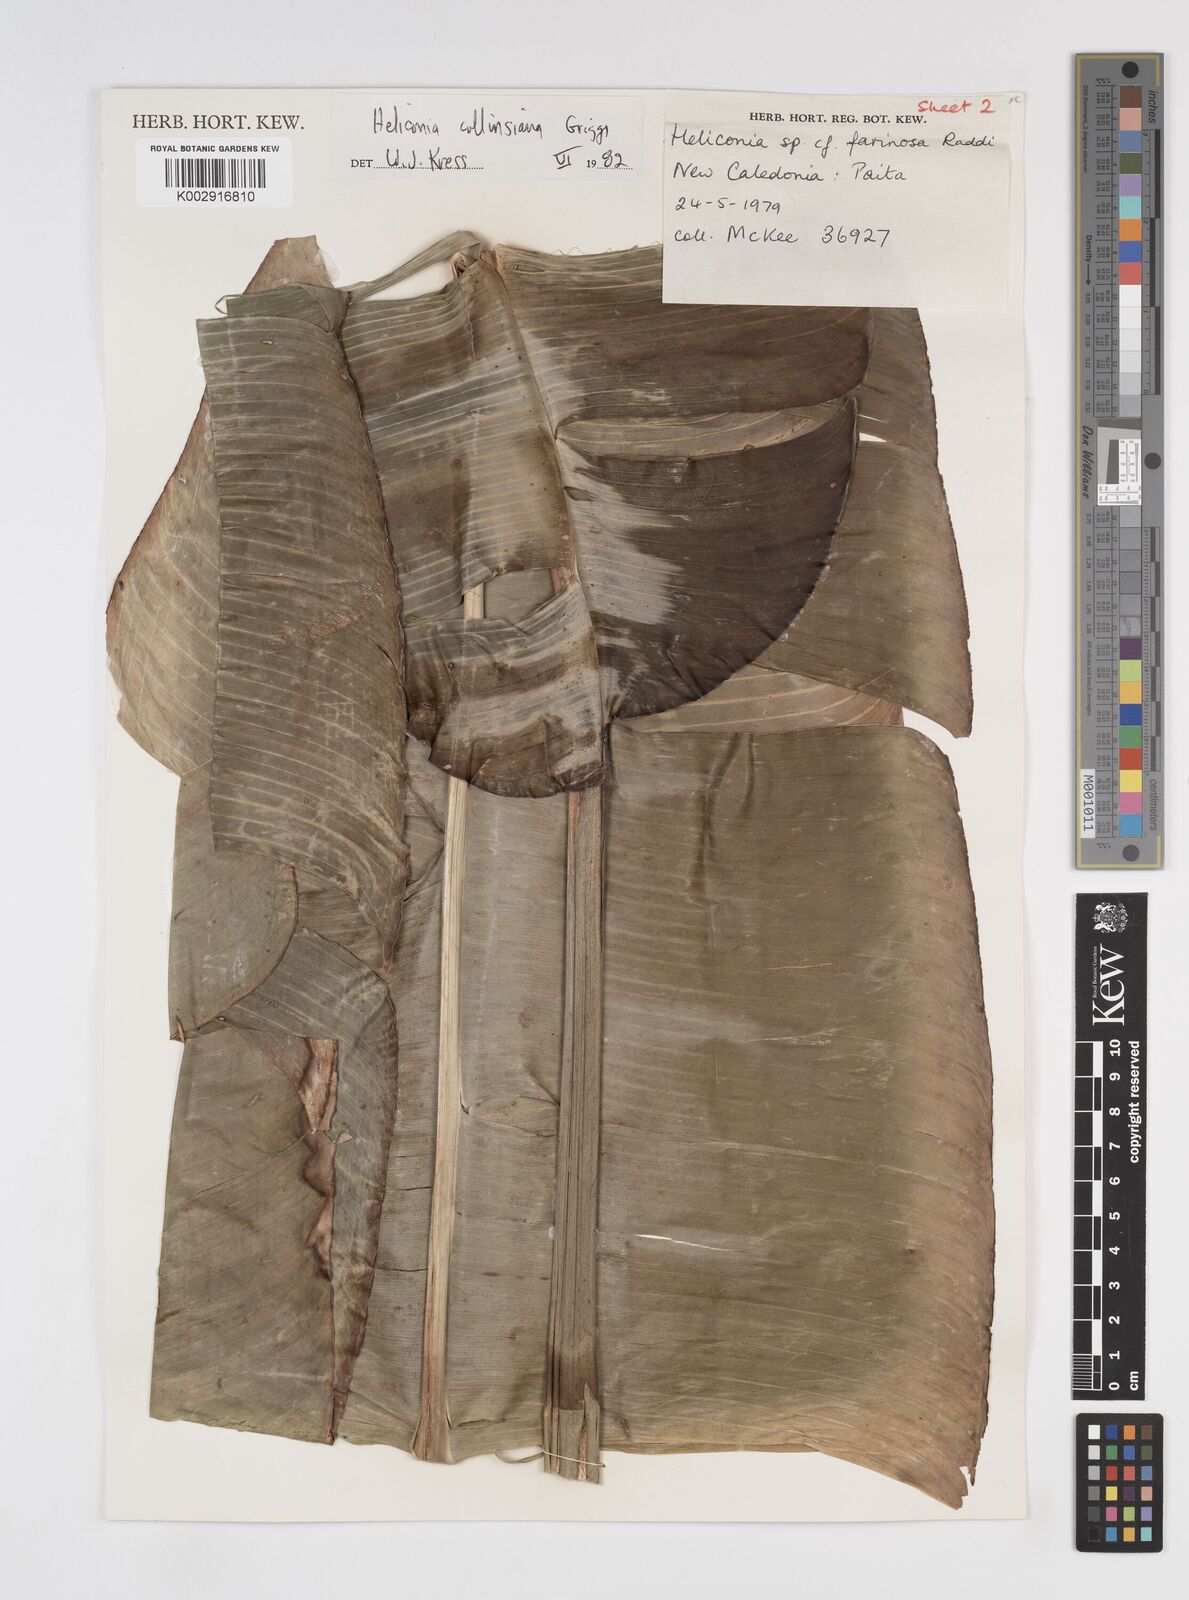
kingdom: Plantae
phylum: Tracheophyta
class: Liliopsida
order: Zingiberales
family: Heliconiaceae
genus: Heliconia
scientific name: Heliconia collinsiana
